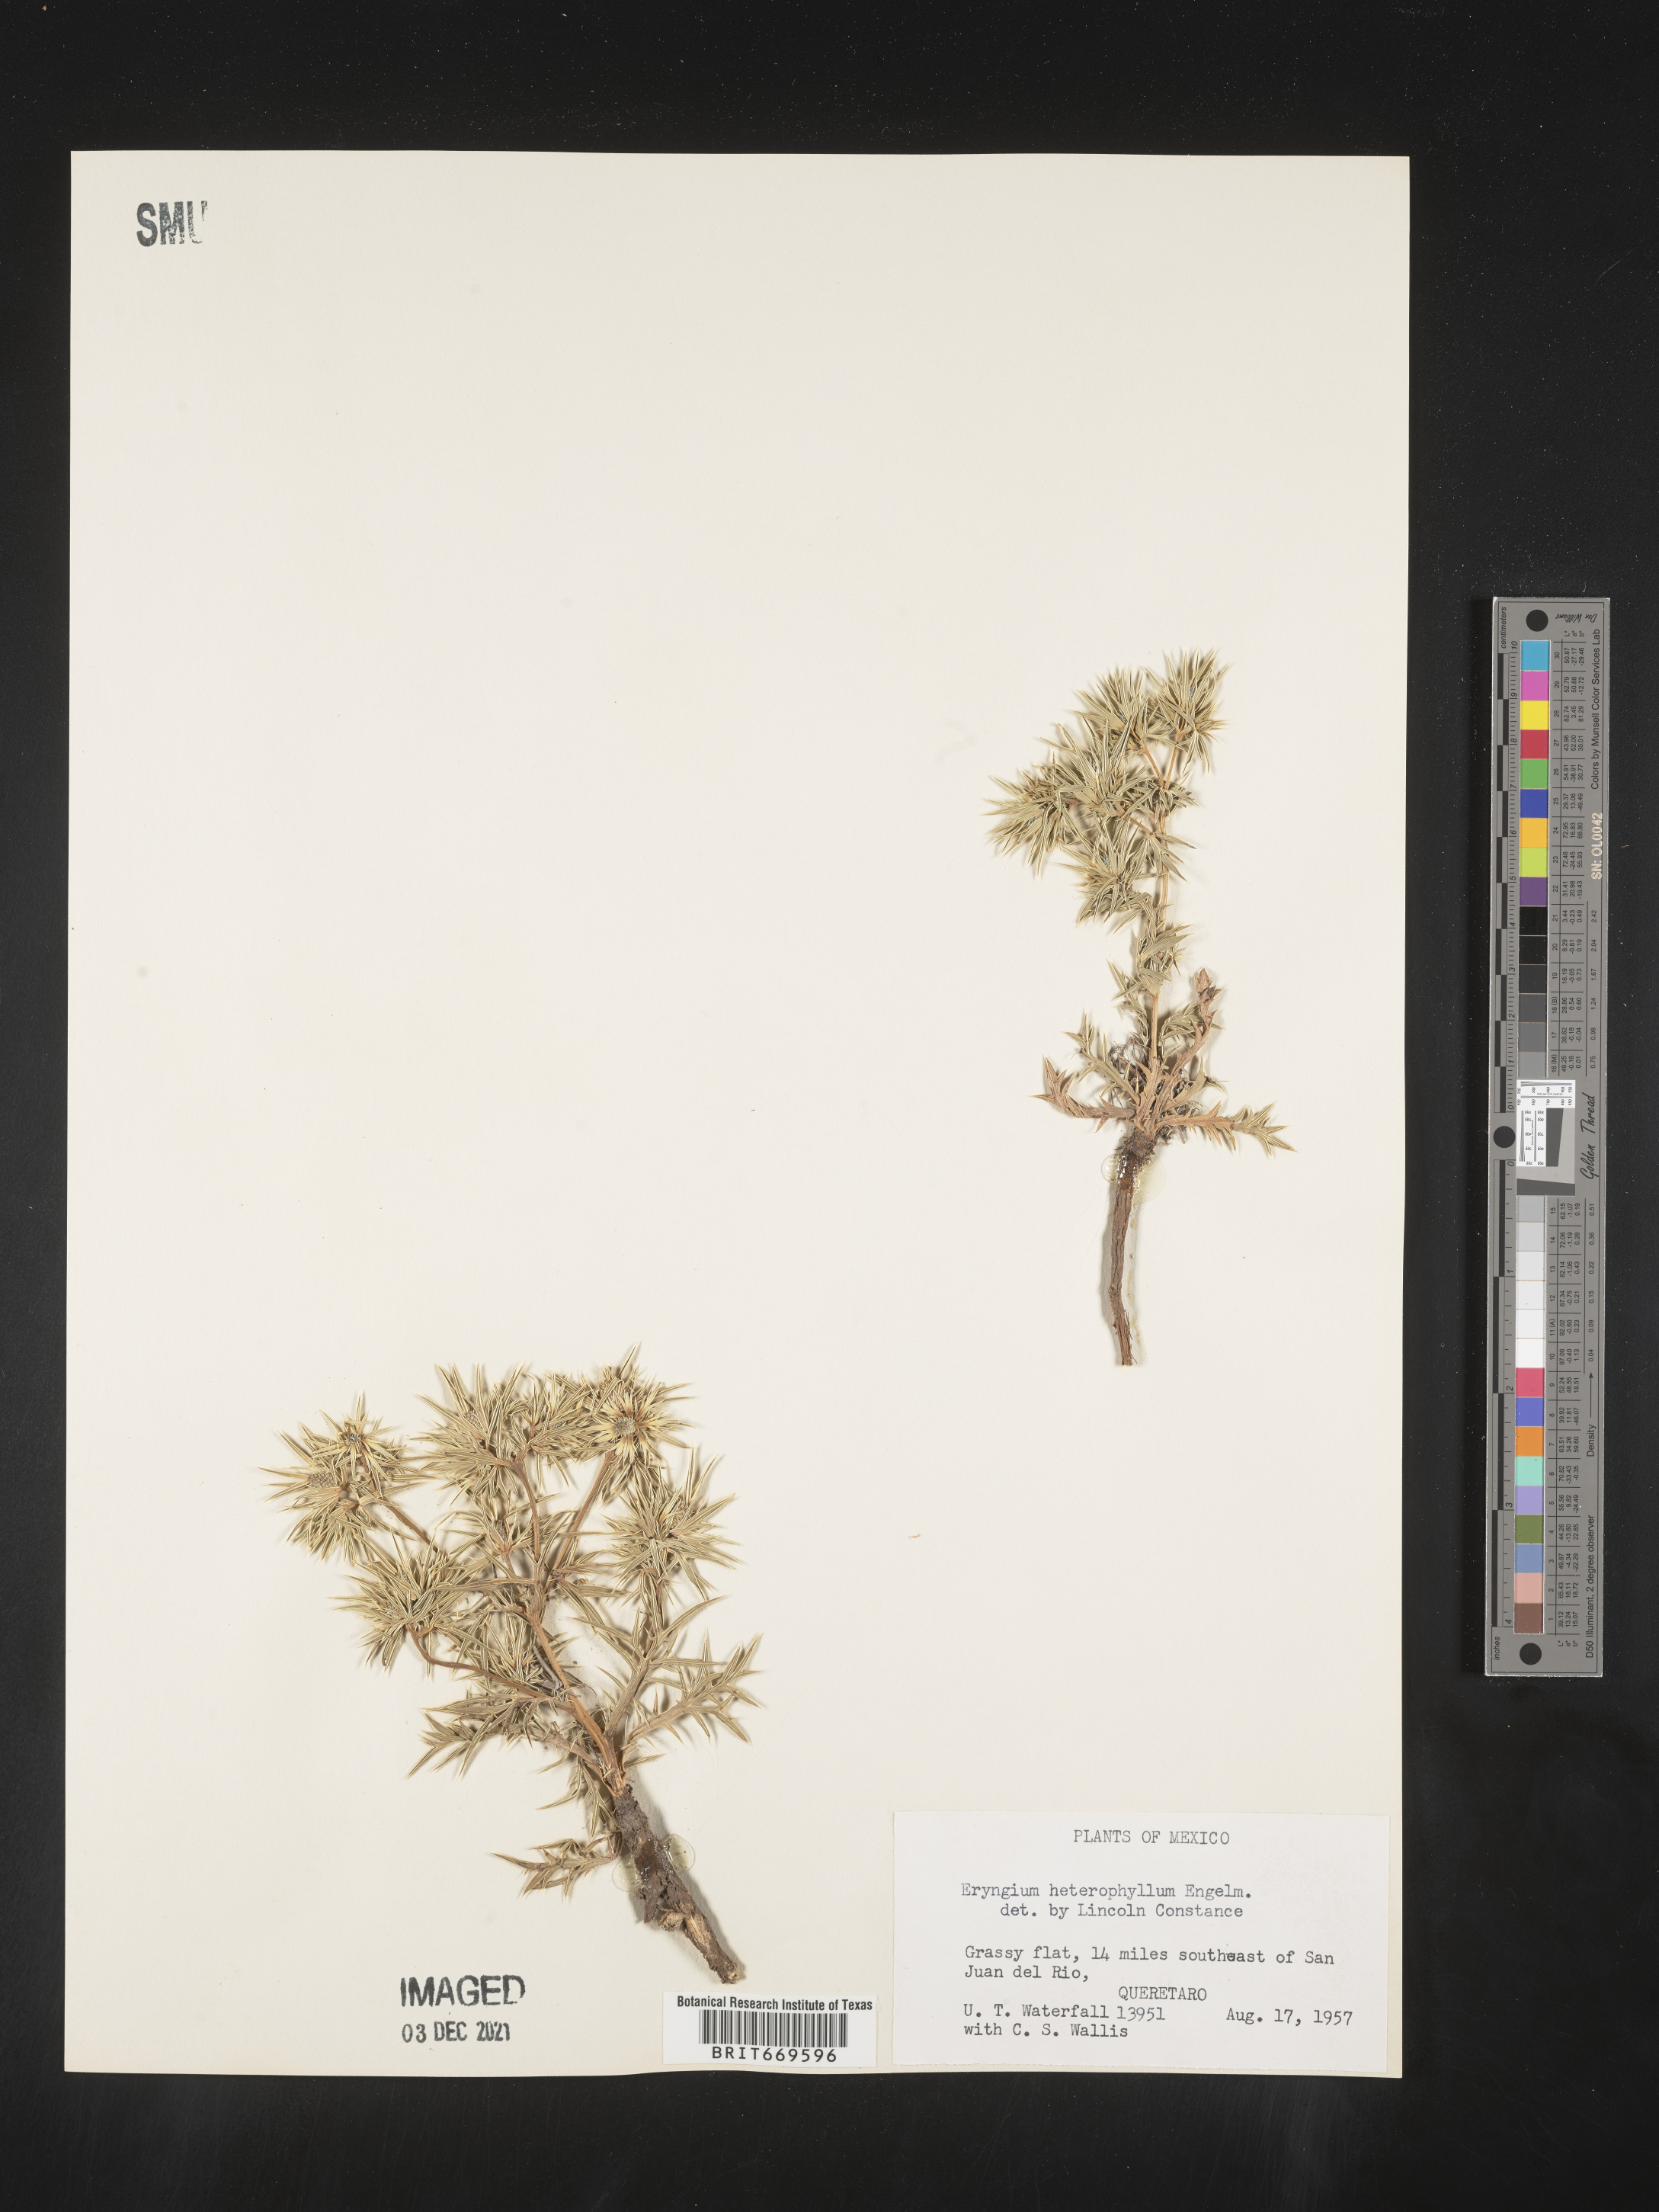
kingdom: Plantae
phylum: Tracheophyta
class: Magnoliopsida
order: Apiales
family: Apiaceae
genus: Eryngium
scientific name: Eryngium
